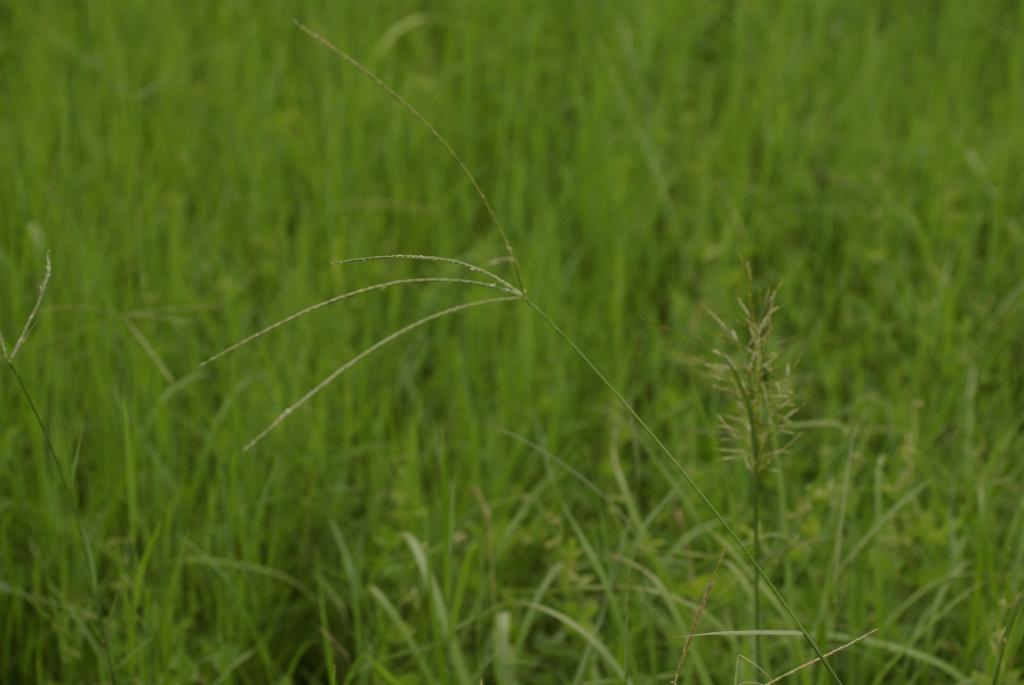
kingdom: Plantae
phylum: Tracheophyta
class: Liliopsida
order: Poales
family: Poaceae
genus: Digitaria
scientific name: Digitaria sanguinalis
